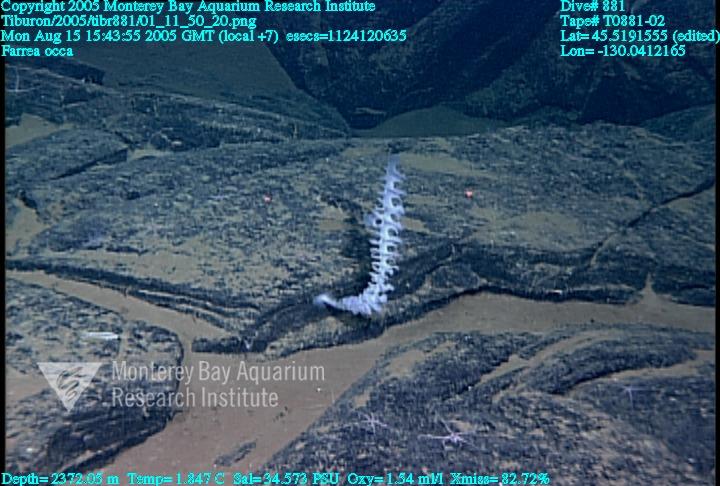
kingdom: Animalia
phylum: Porifera
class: Hexactinellida
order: Sceptrulophora
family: Farreidae
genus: Farrea
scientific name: Farrea occa
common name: Reversed glass sponge
